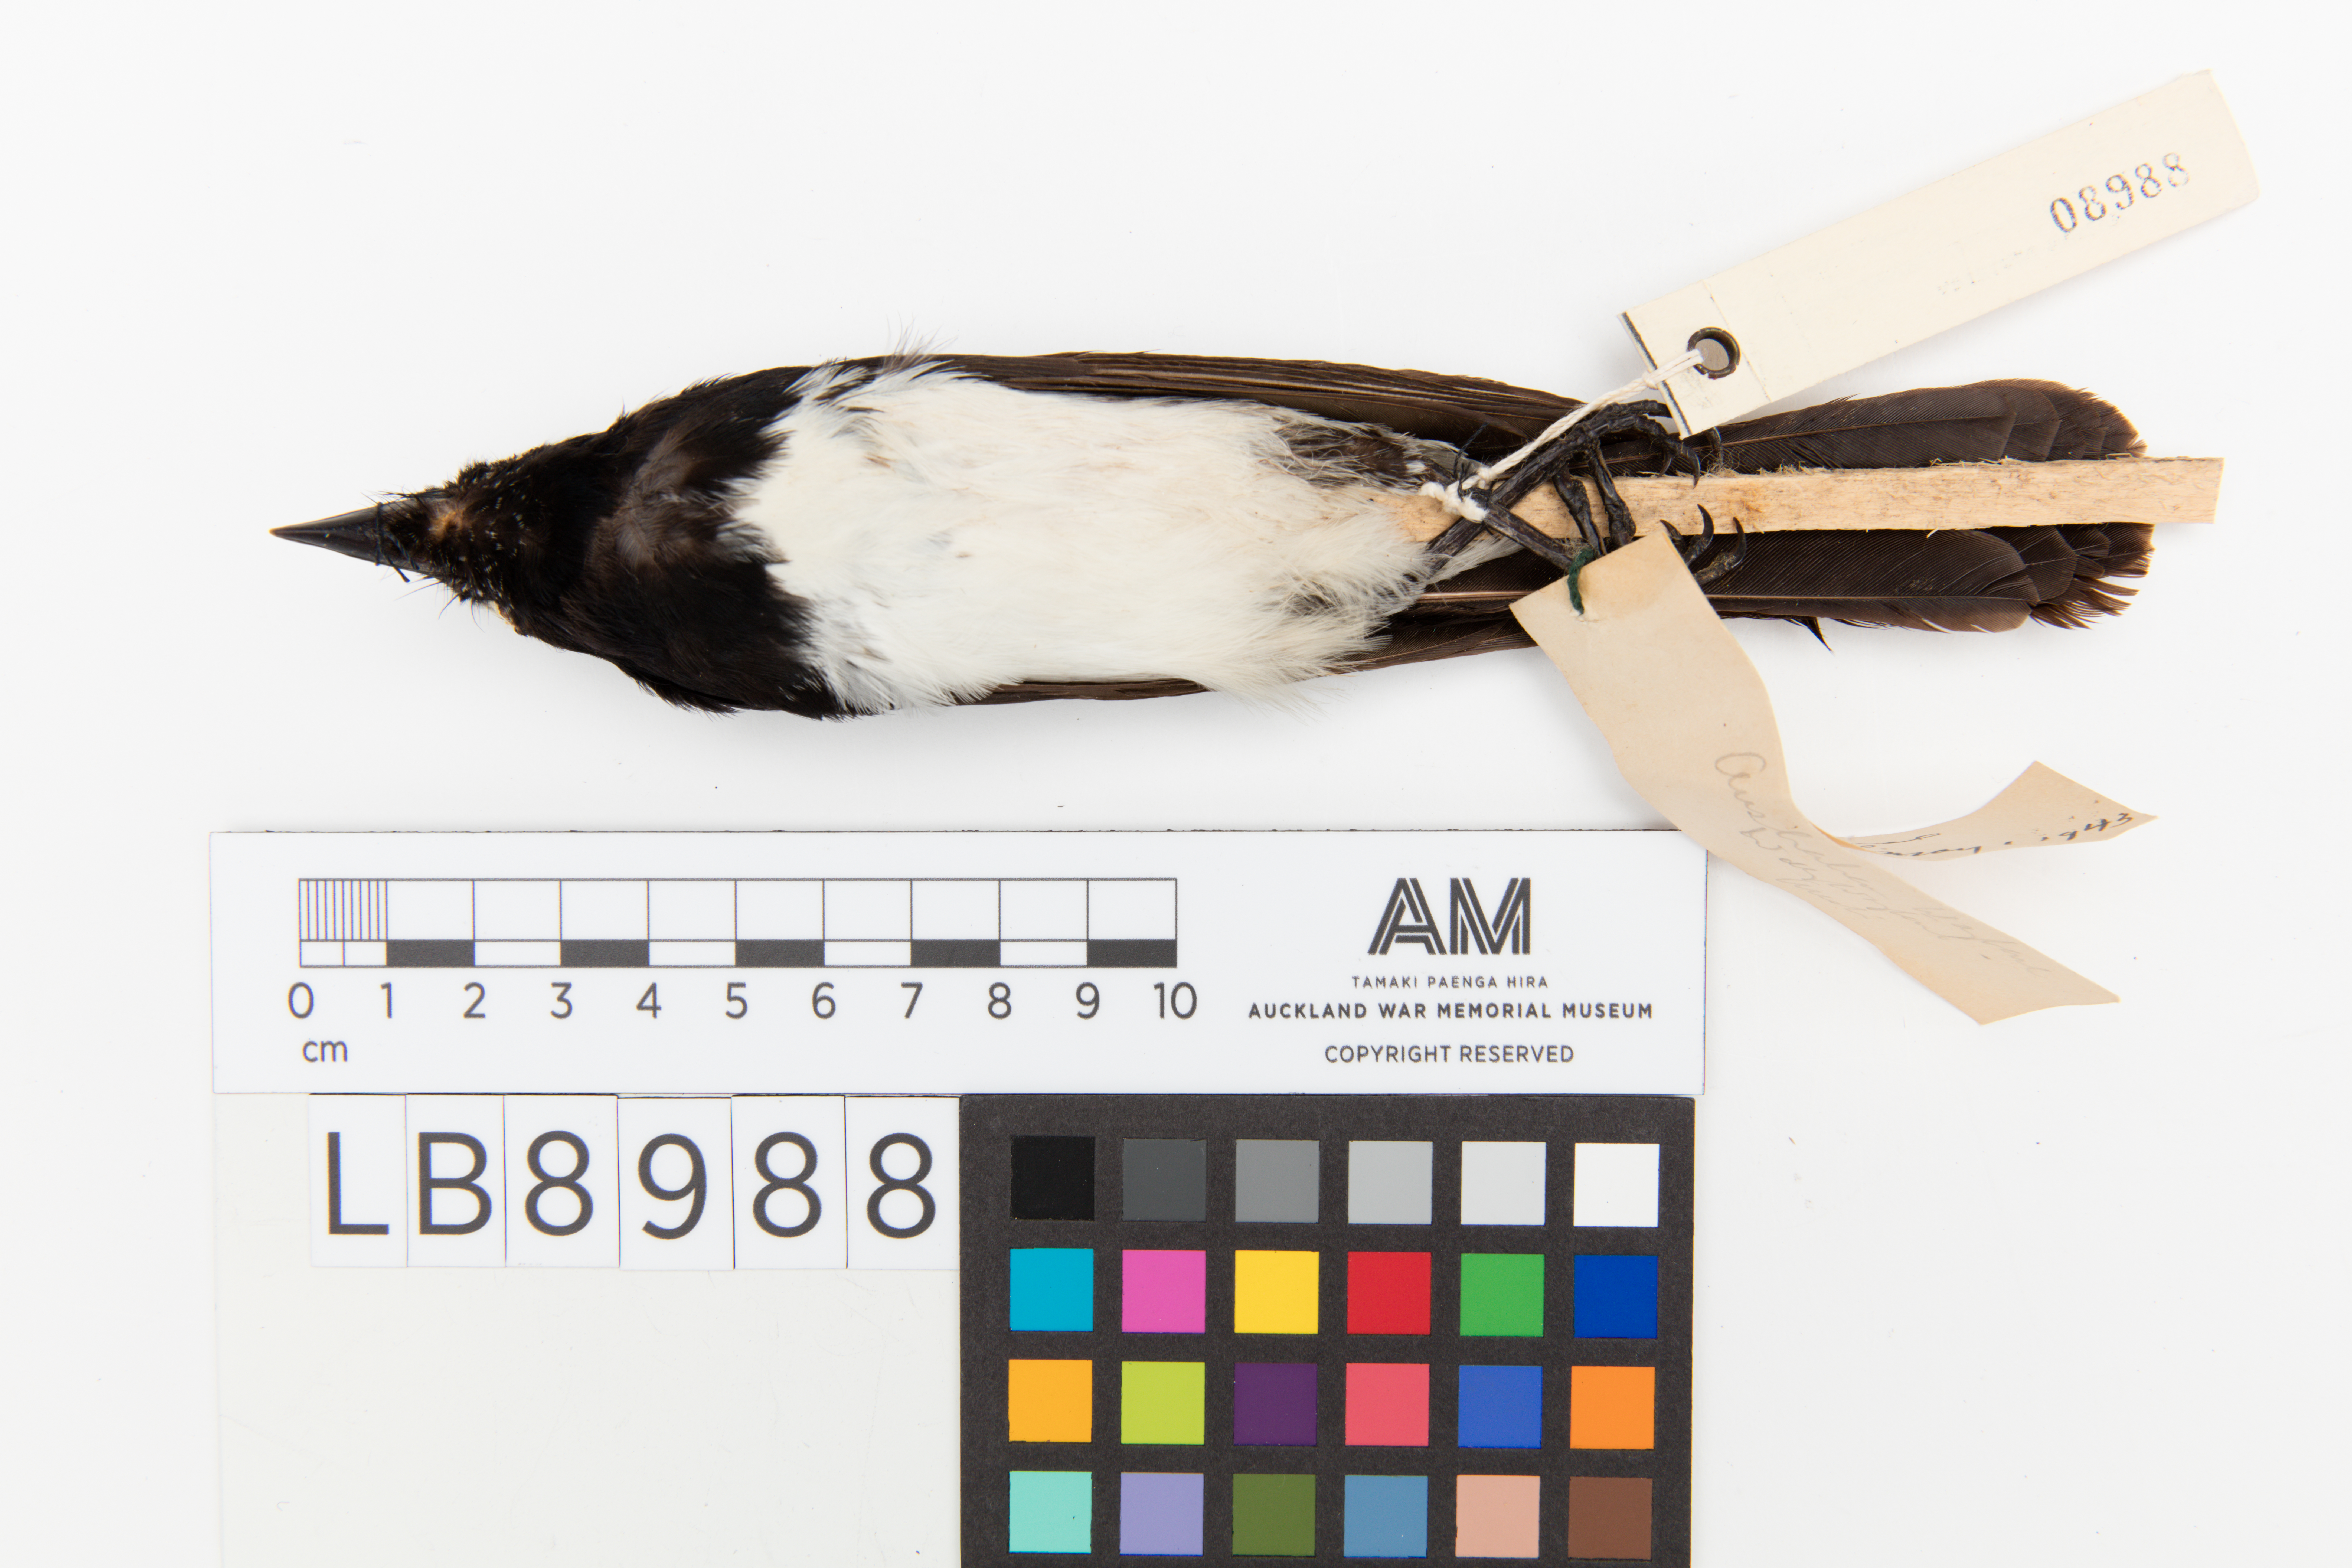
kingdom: Animalia
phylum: Chordata
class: Aves
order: Passeriformes
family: Rhipiduridae
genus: Rhipidura
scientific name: Rhipidura leucophrys
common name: Willie wagtail
